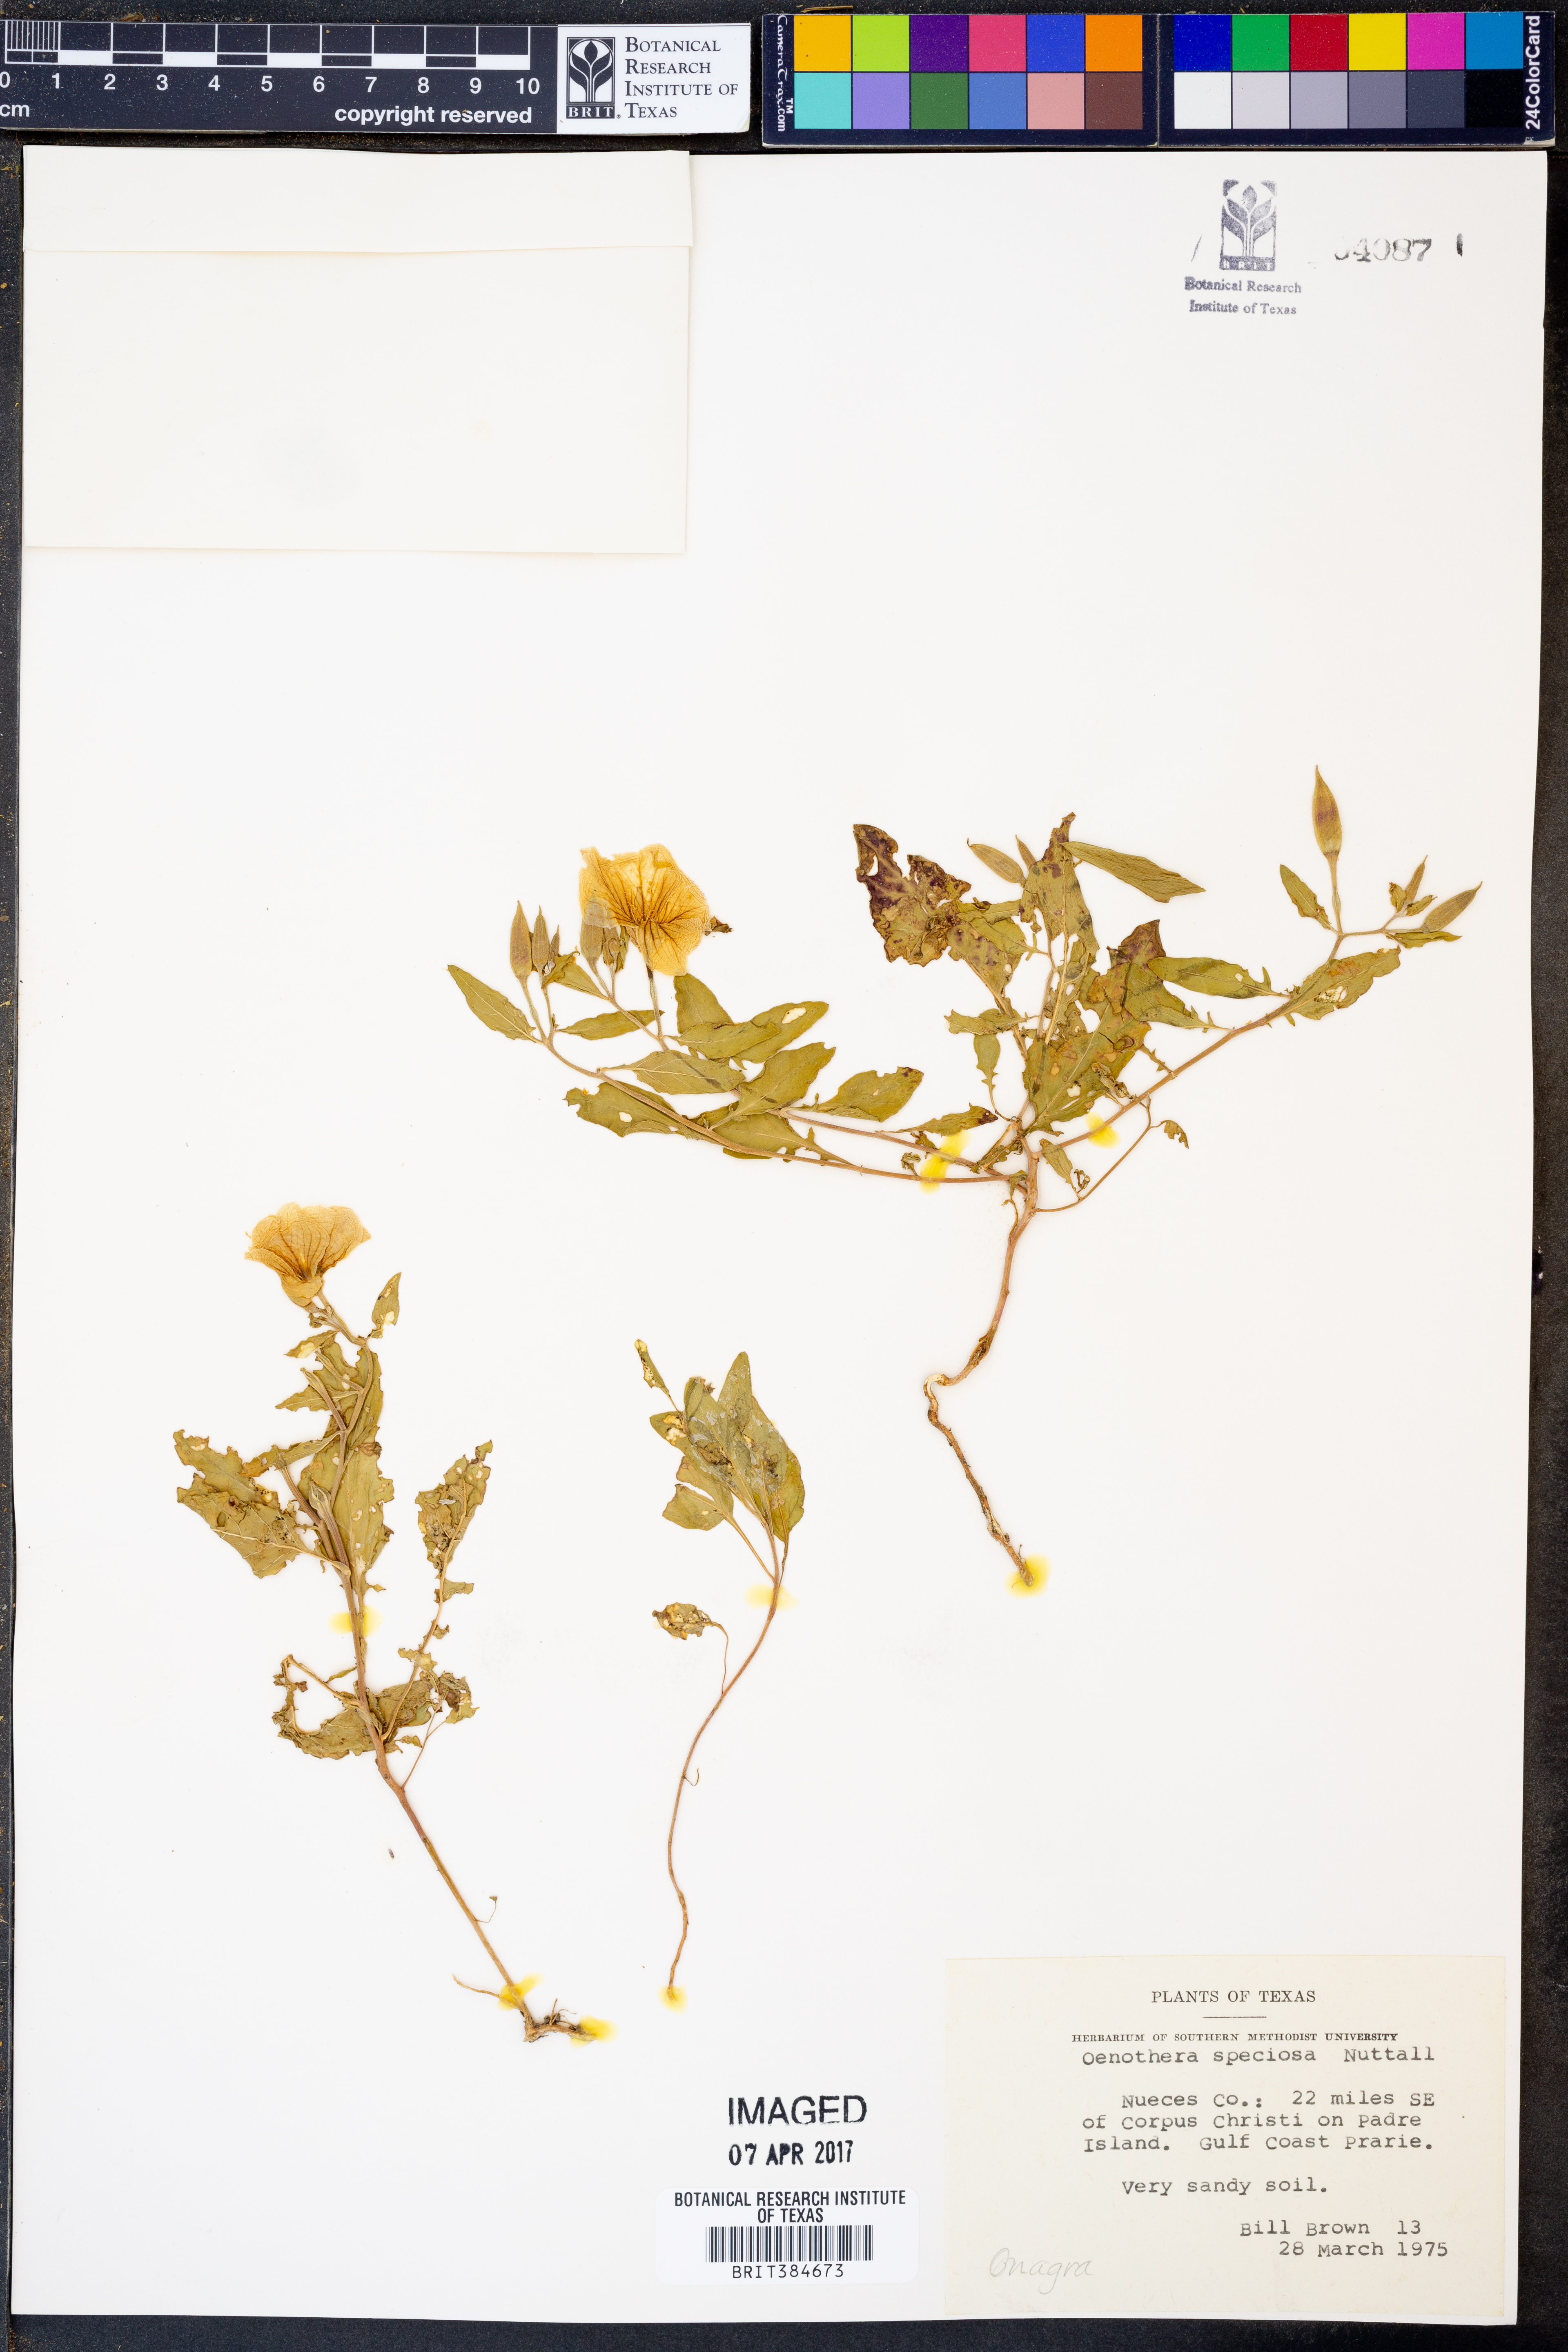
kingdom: Plantae
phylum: Tracheophyta
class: Magnoliopsida
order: Myrtales
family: Onagraceae
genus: Oenothera
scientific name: Oenothera speciosa
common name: White evening-primrose
